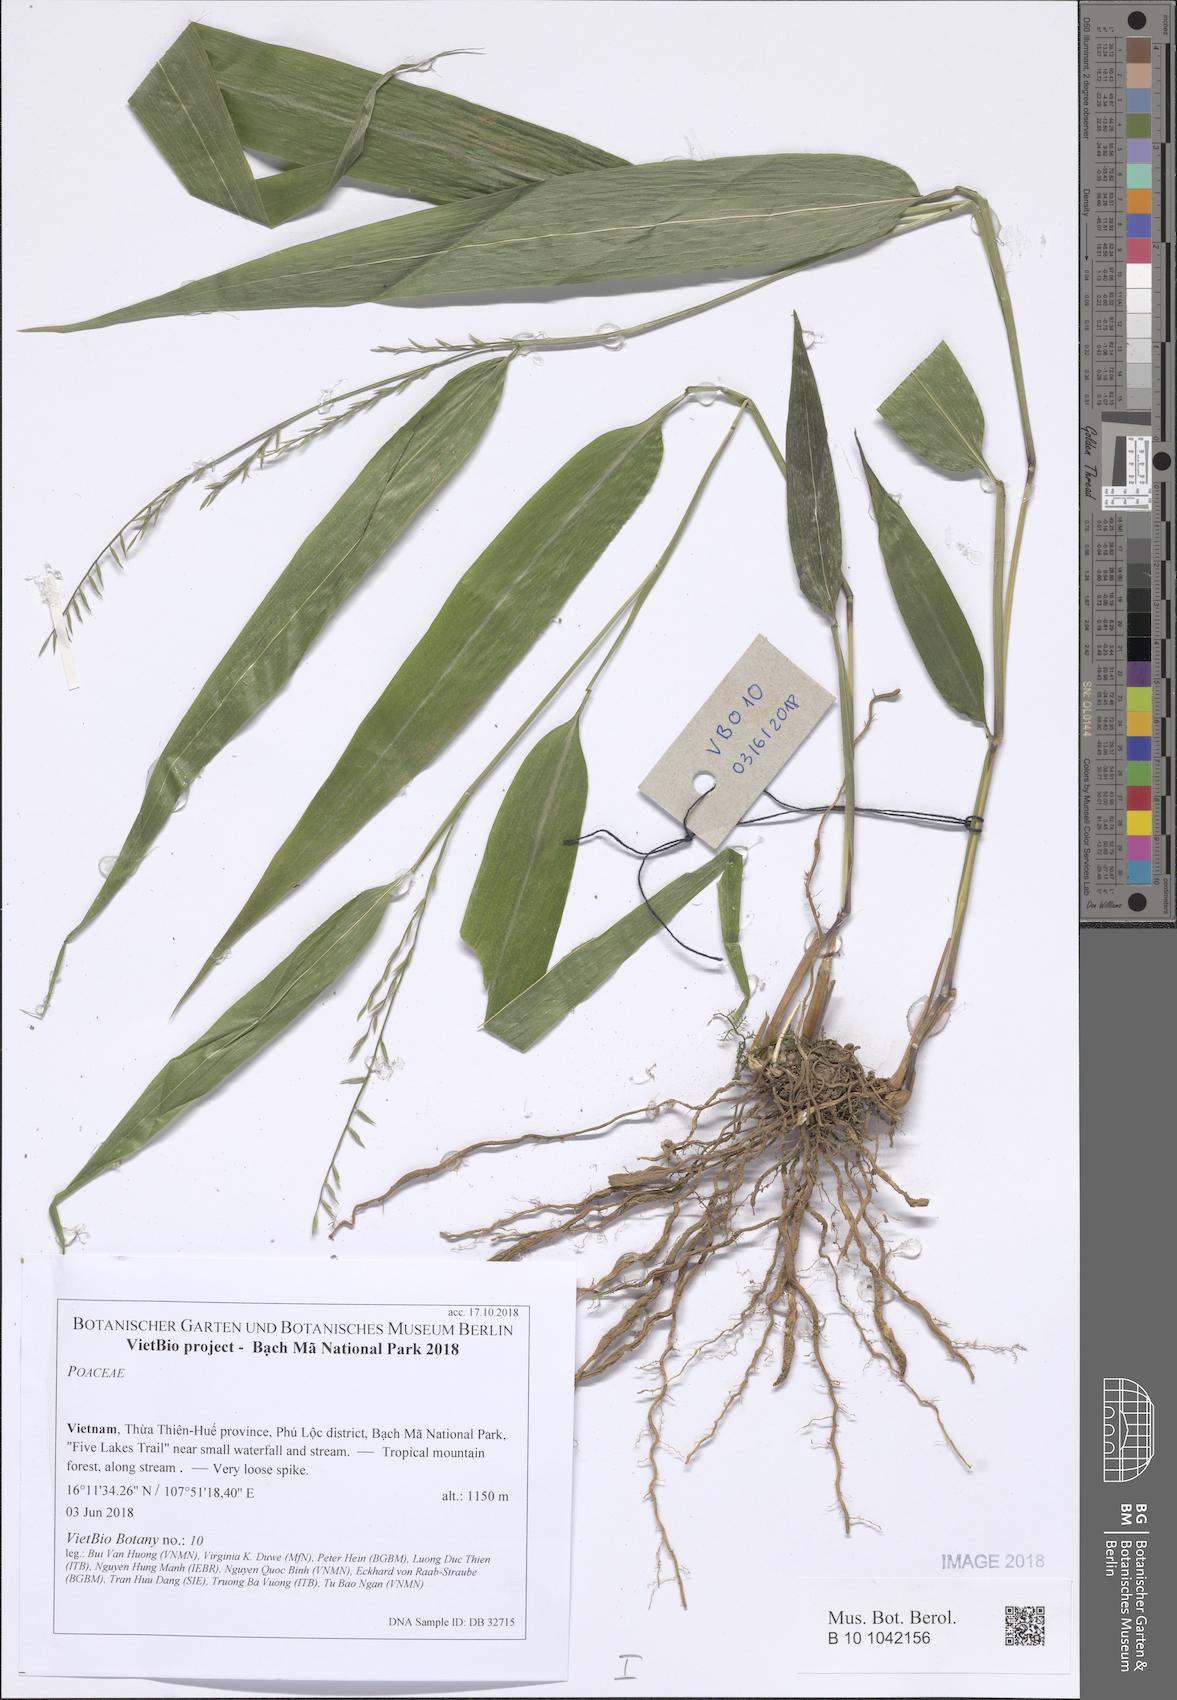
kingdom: Plantae
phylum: Tracheophyta
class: Liliopsida
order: Poales
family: Poaceae
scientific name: Poaceae
